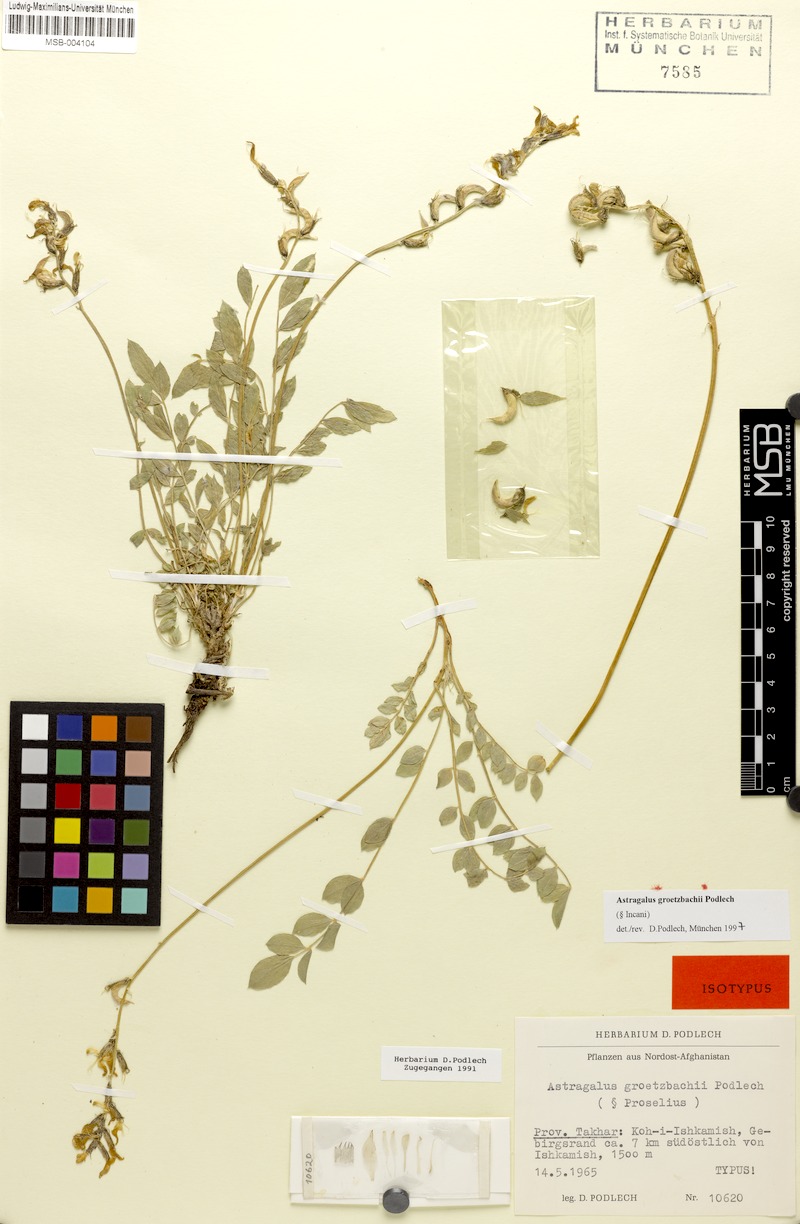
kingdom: Plantae
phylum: Tracheophyta
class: Magnoliopsida
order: Fabales
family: Fabaceae
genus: Astragalus
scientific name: Astragalus groetzbachii
